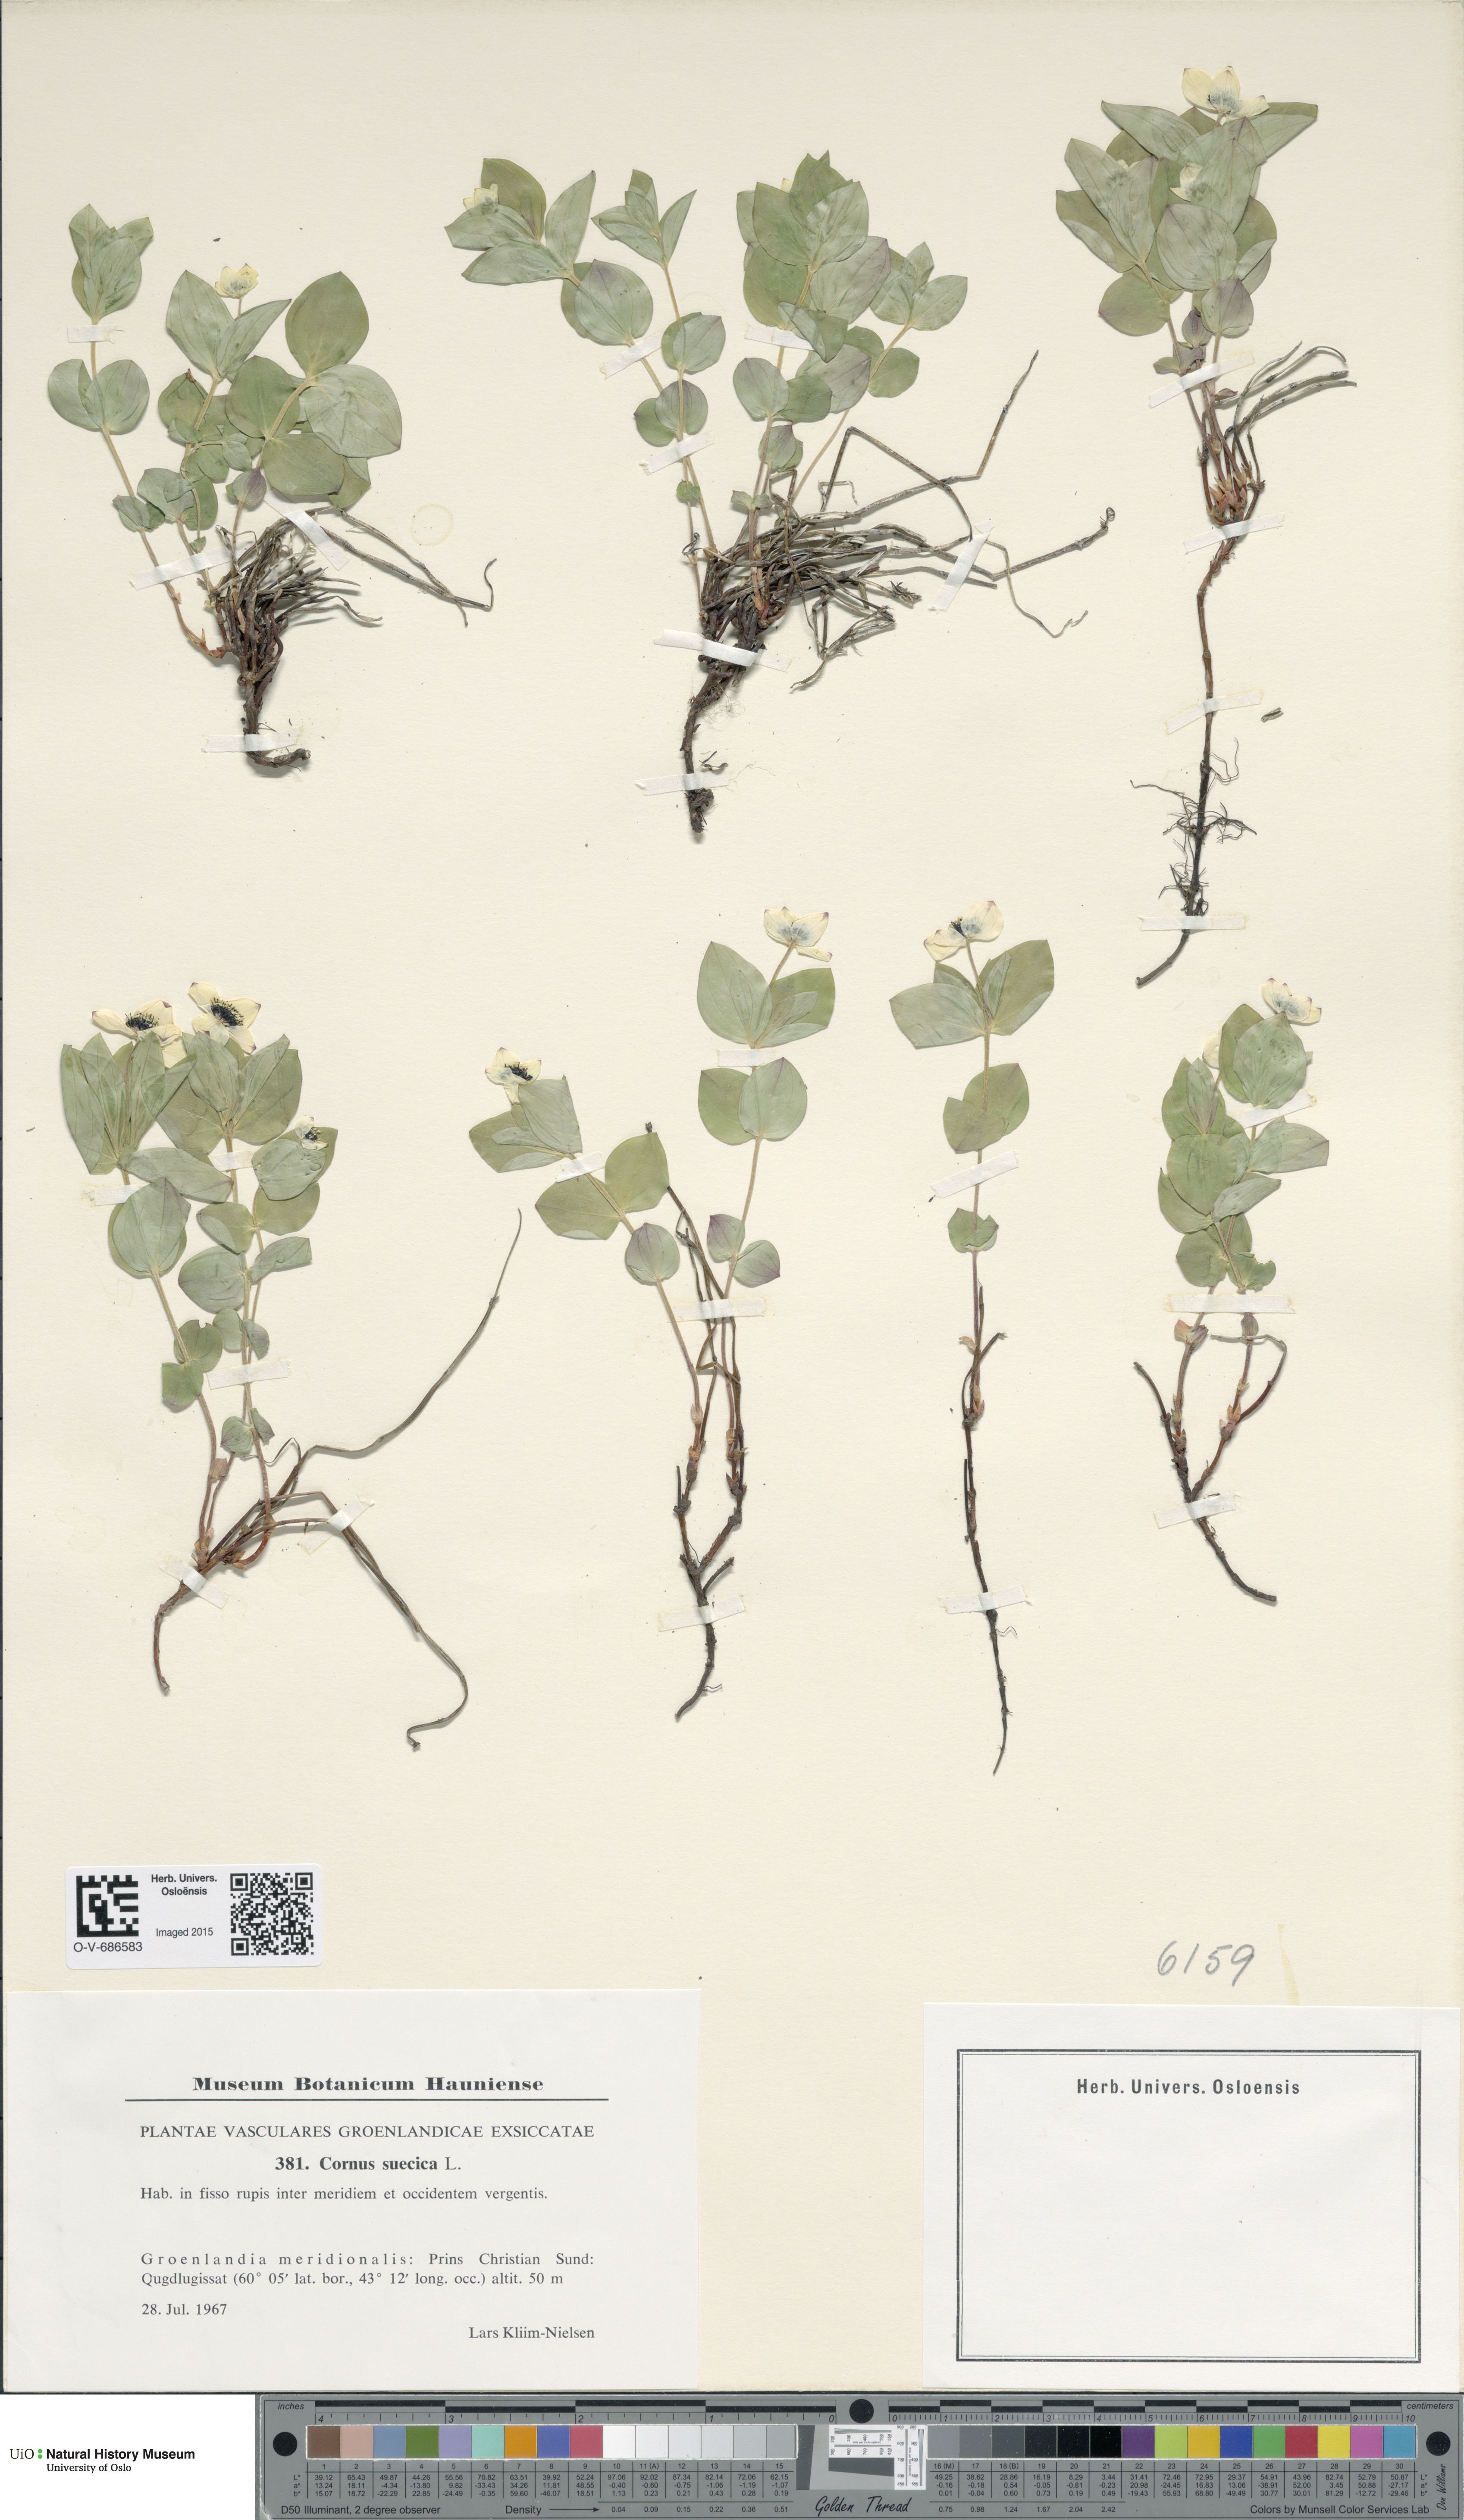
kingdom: Plantae
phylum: Tracheophyta
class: Magnoliopsida
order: Cornales
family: Cornaceae
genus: Cornus
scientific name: Cornus suecica
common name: Dwarf cornel
